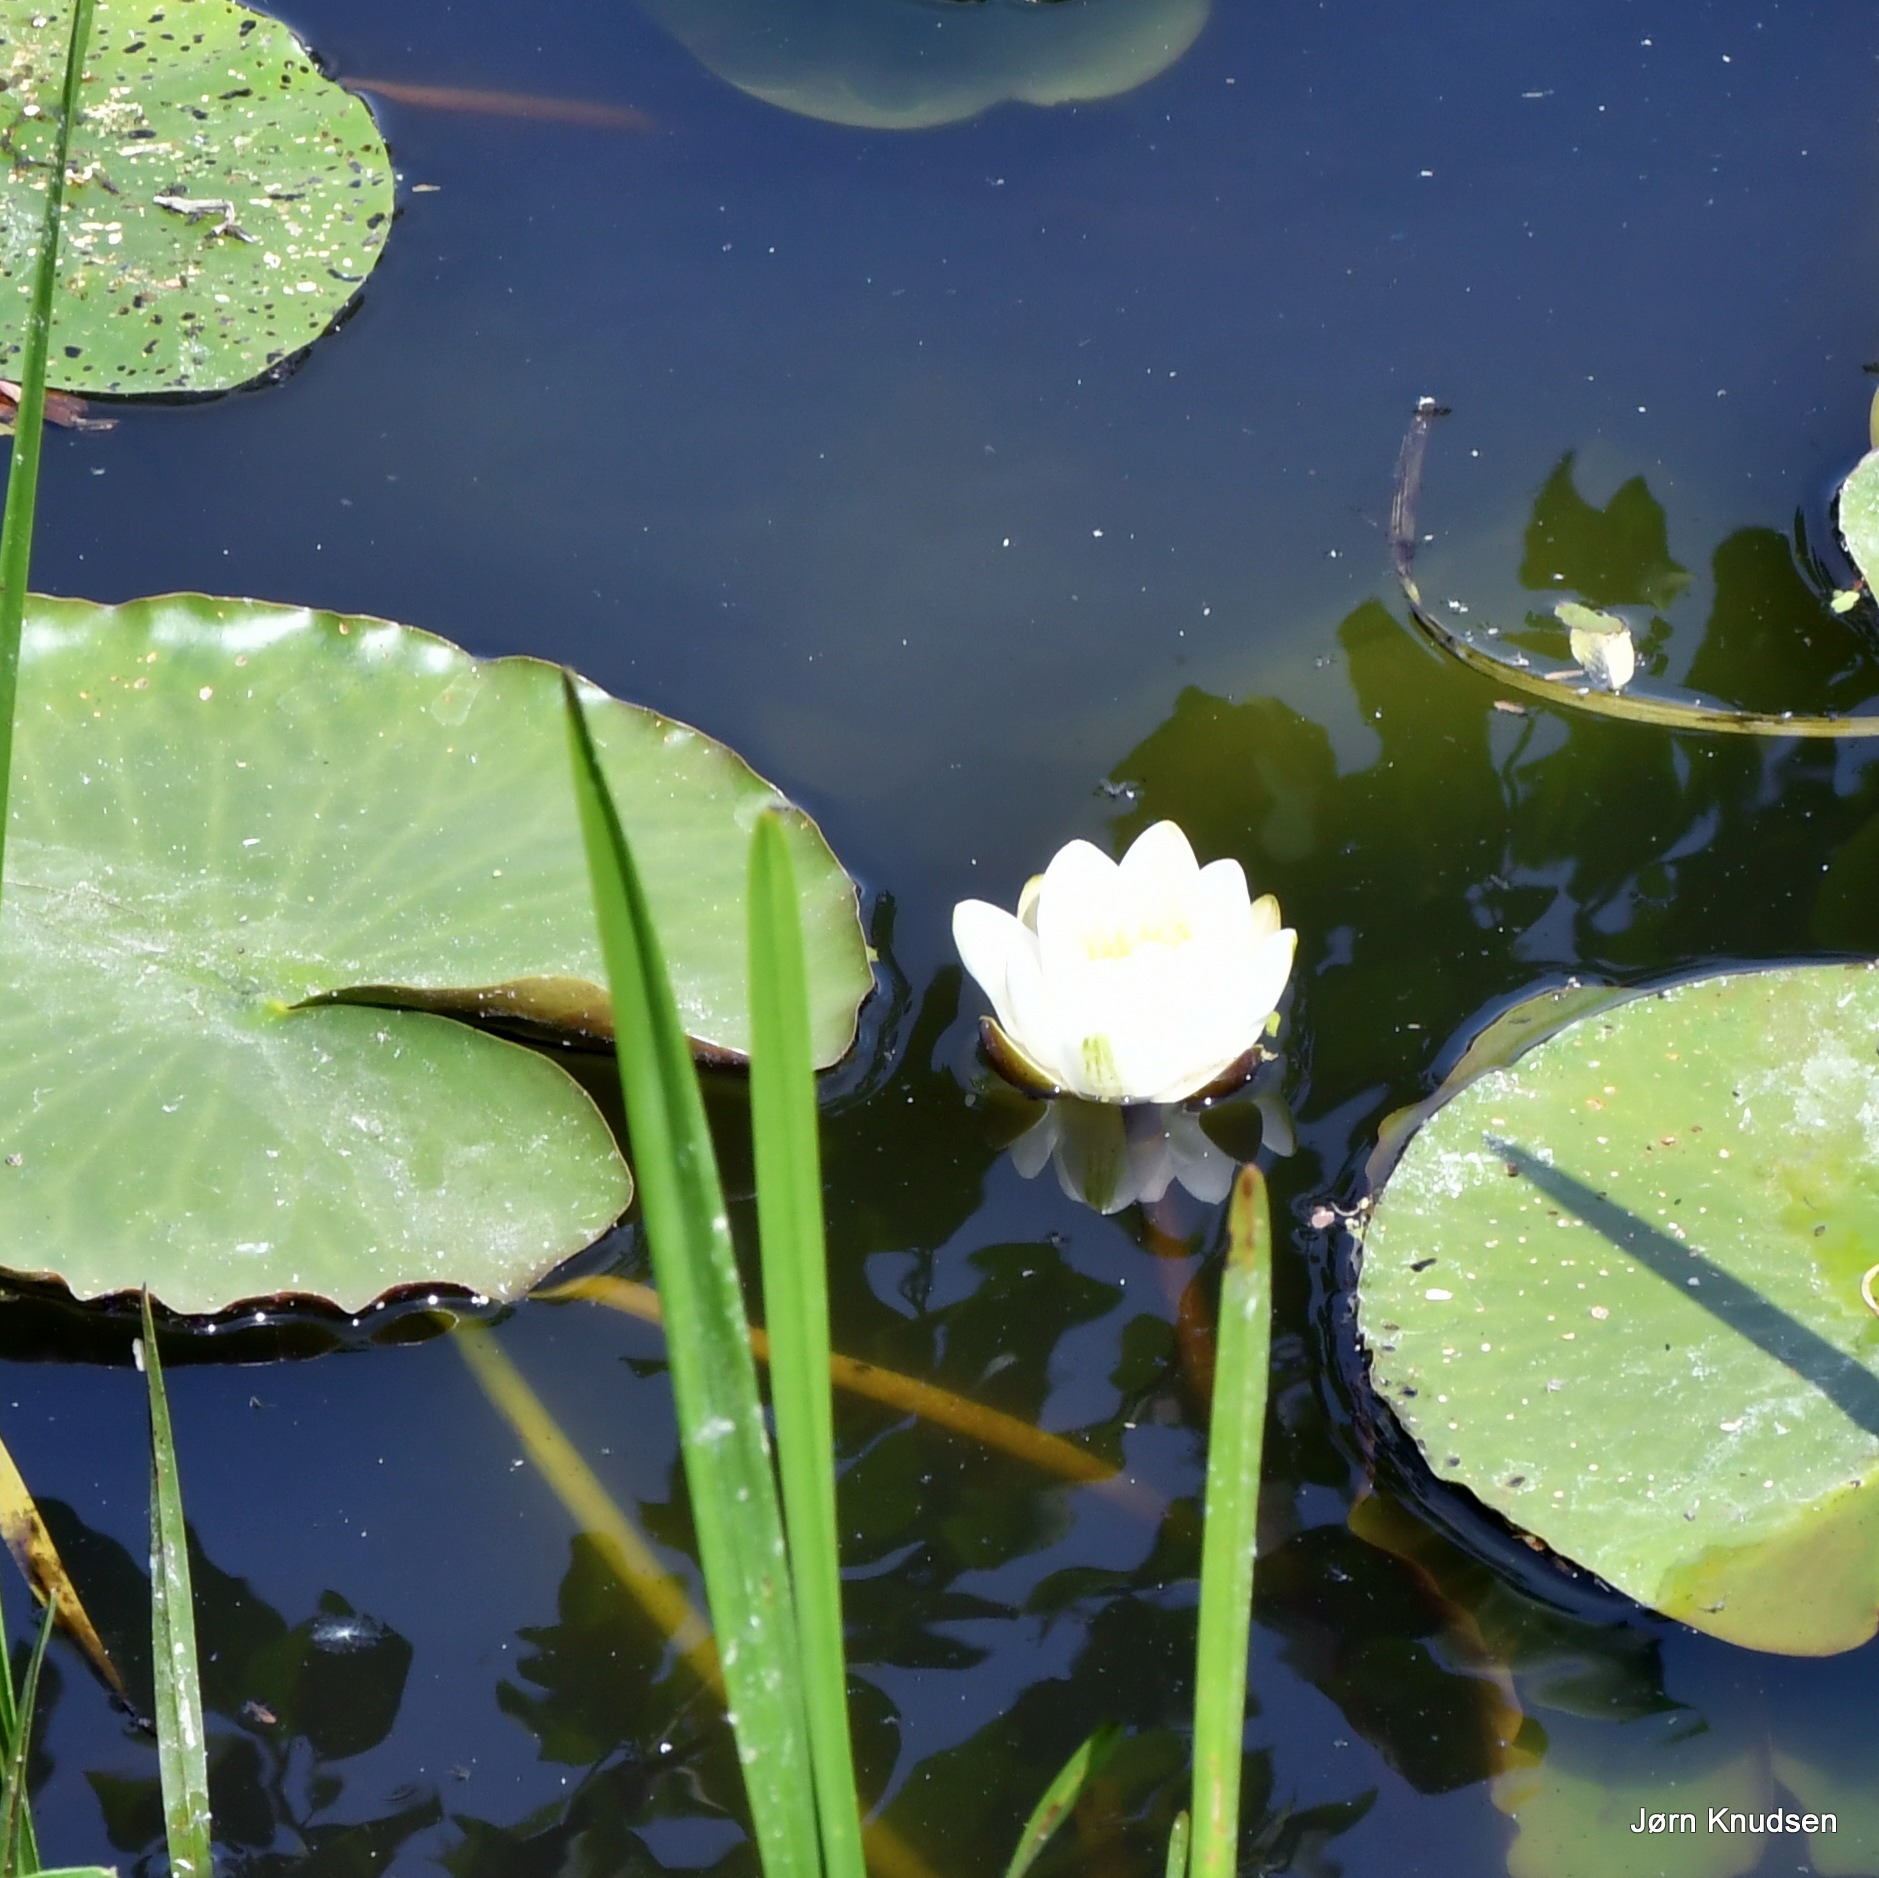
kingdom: Plantae
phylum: Tracheophyta
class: Magnoliopsida
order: Nymphaeales
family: Nymphaeaceae
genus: Nymphaea
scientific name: Nymphaea alba
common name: Hvid åkande
